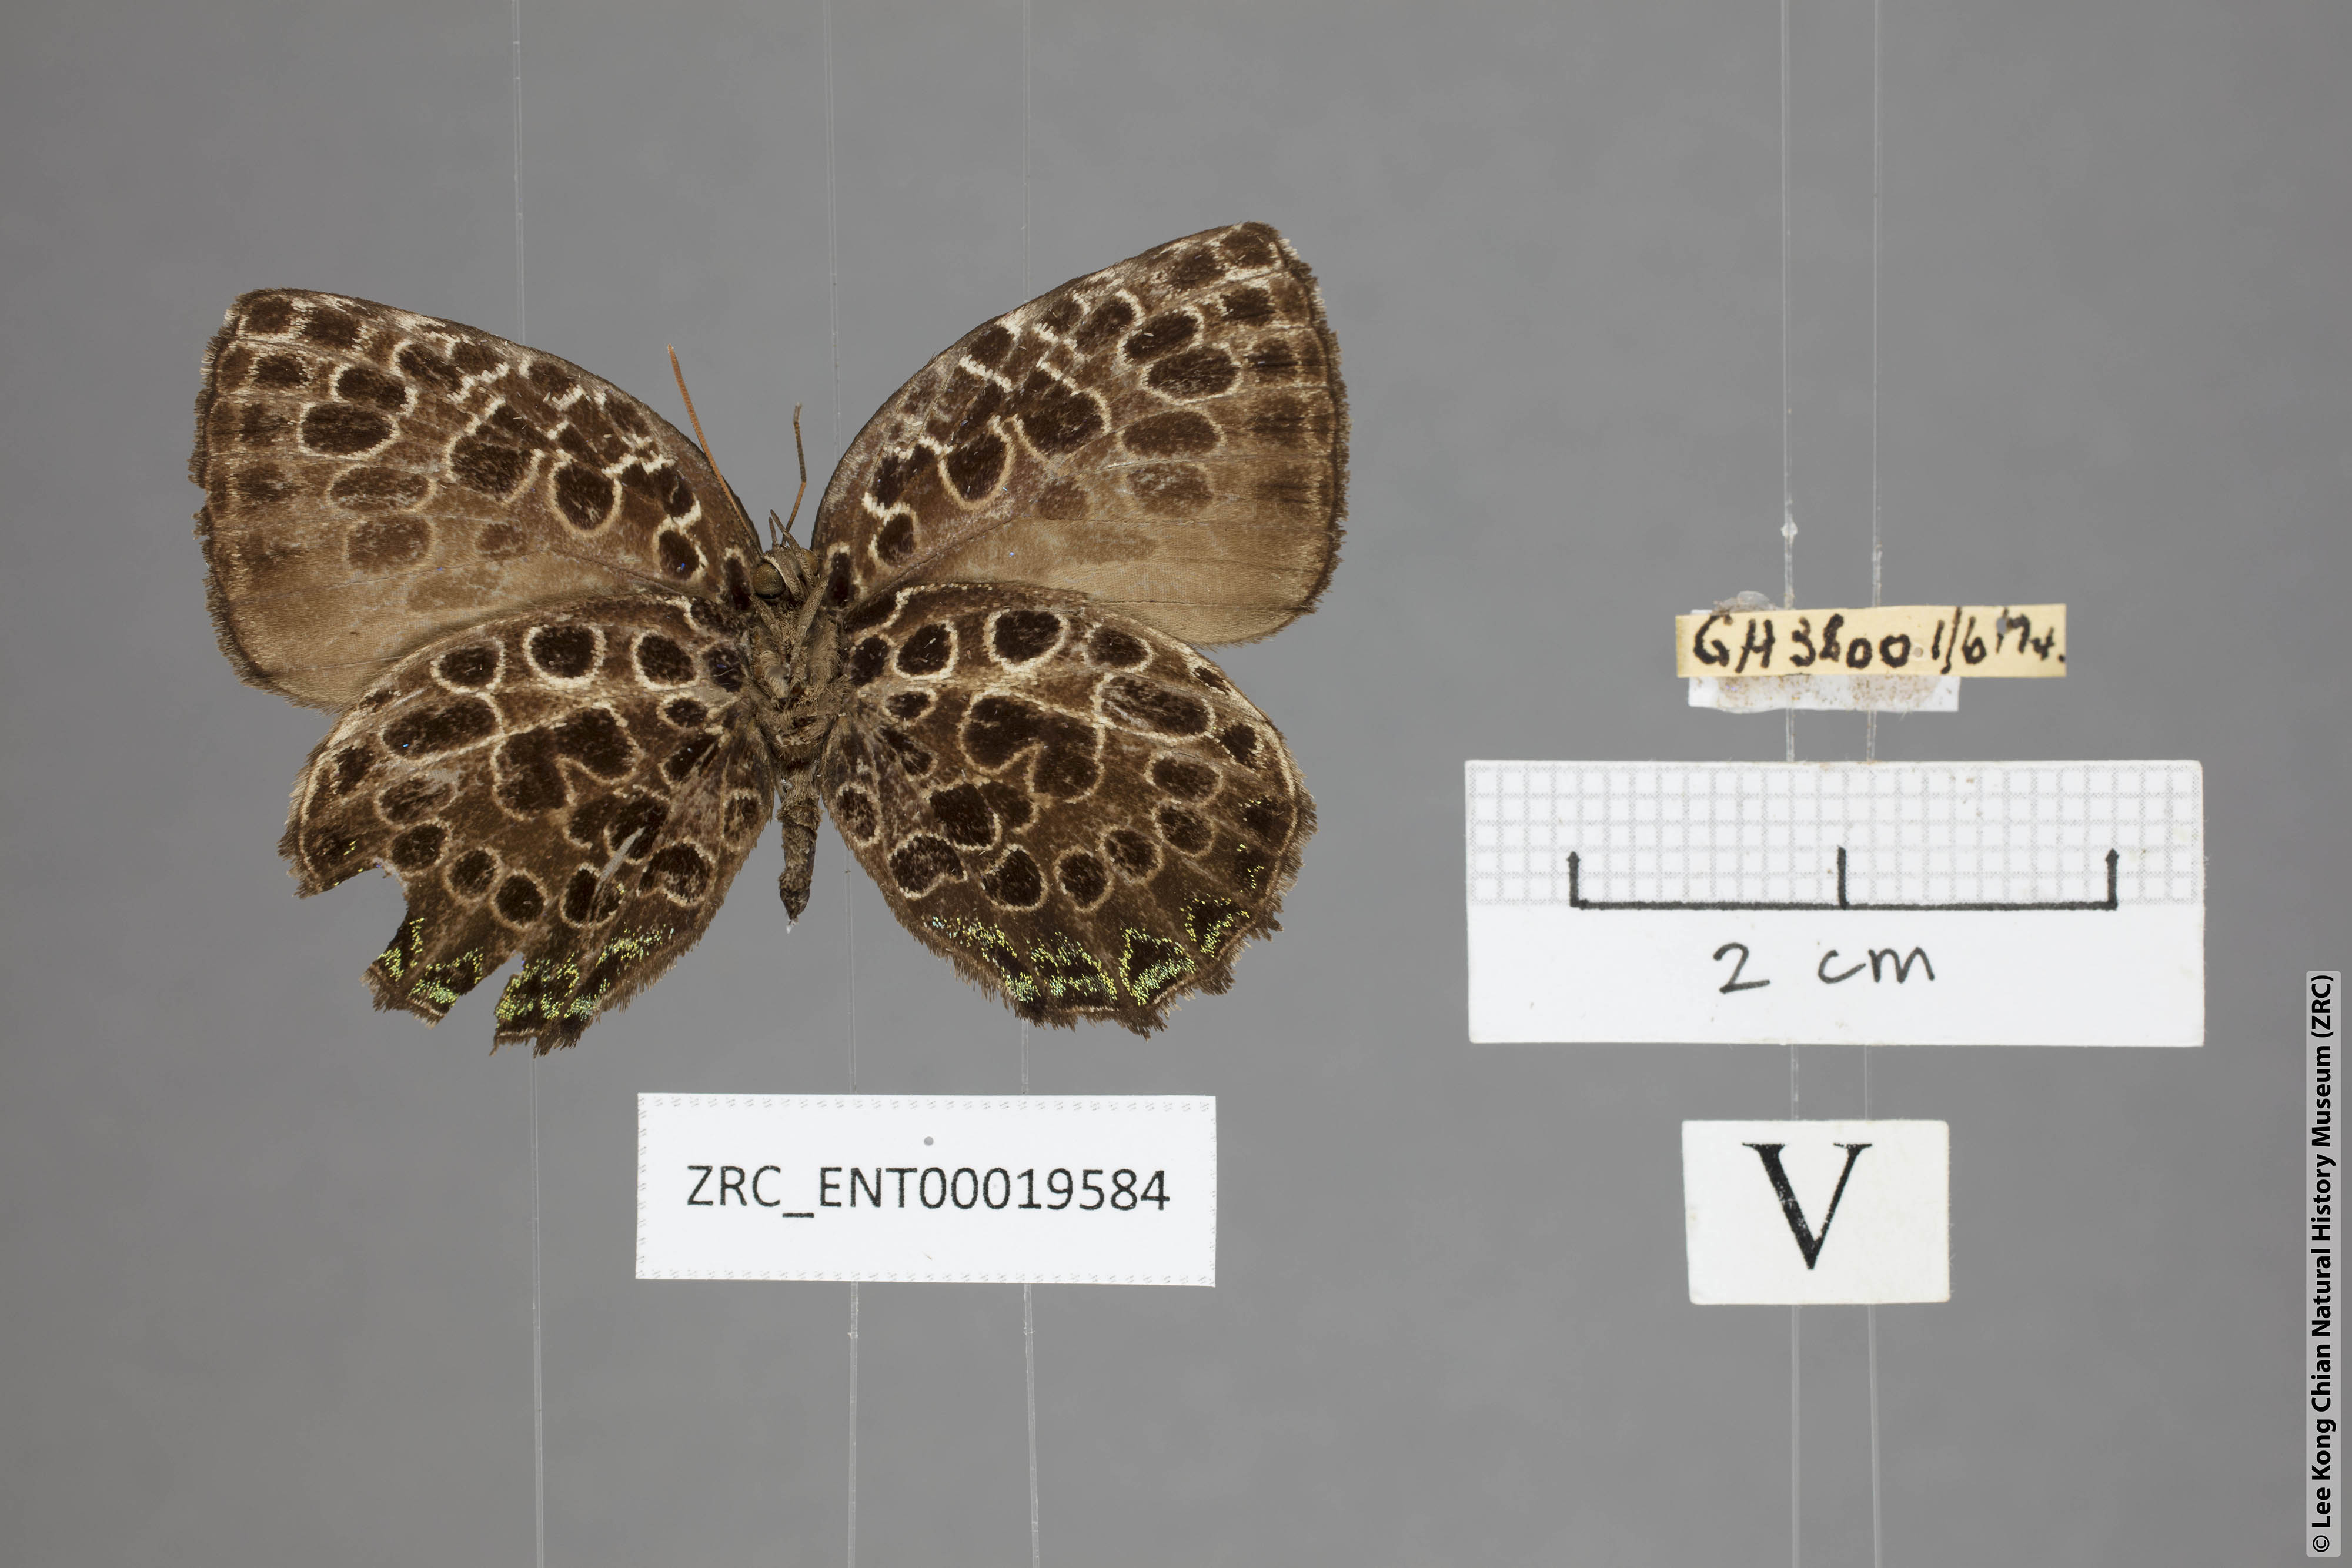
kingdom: Animalia
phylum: Arthropoda
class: Insecta
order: Lepidoptera
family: Lycaenidae
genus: Arhopala
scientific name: Arhopala kinabala
